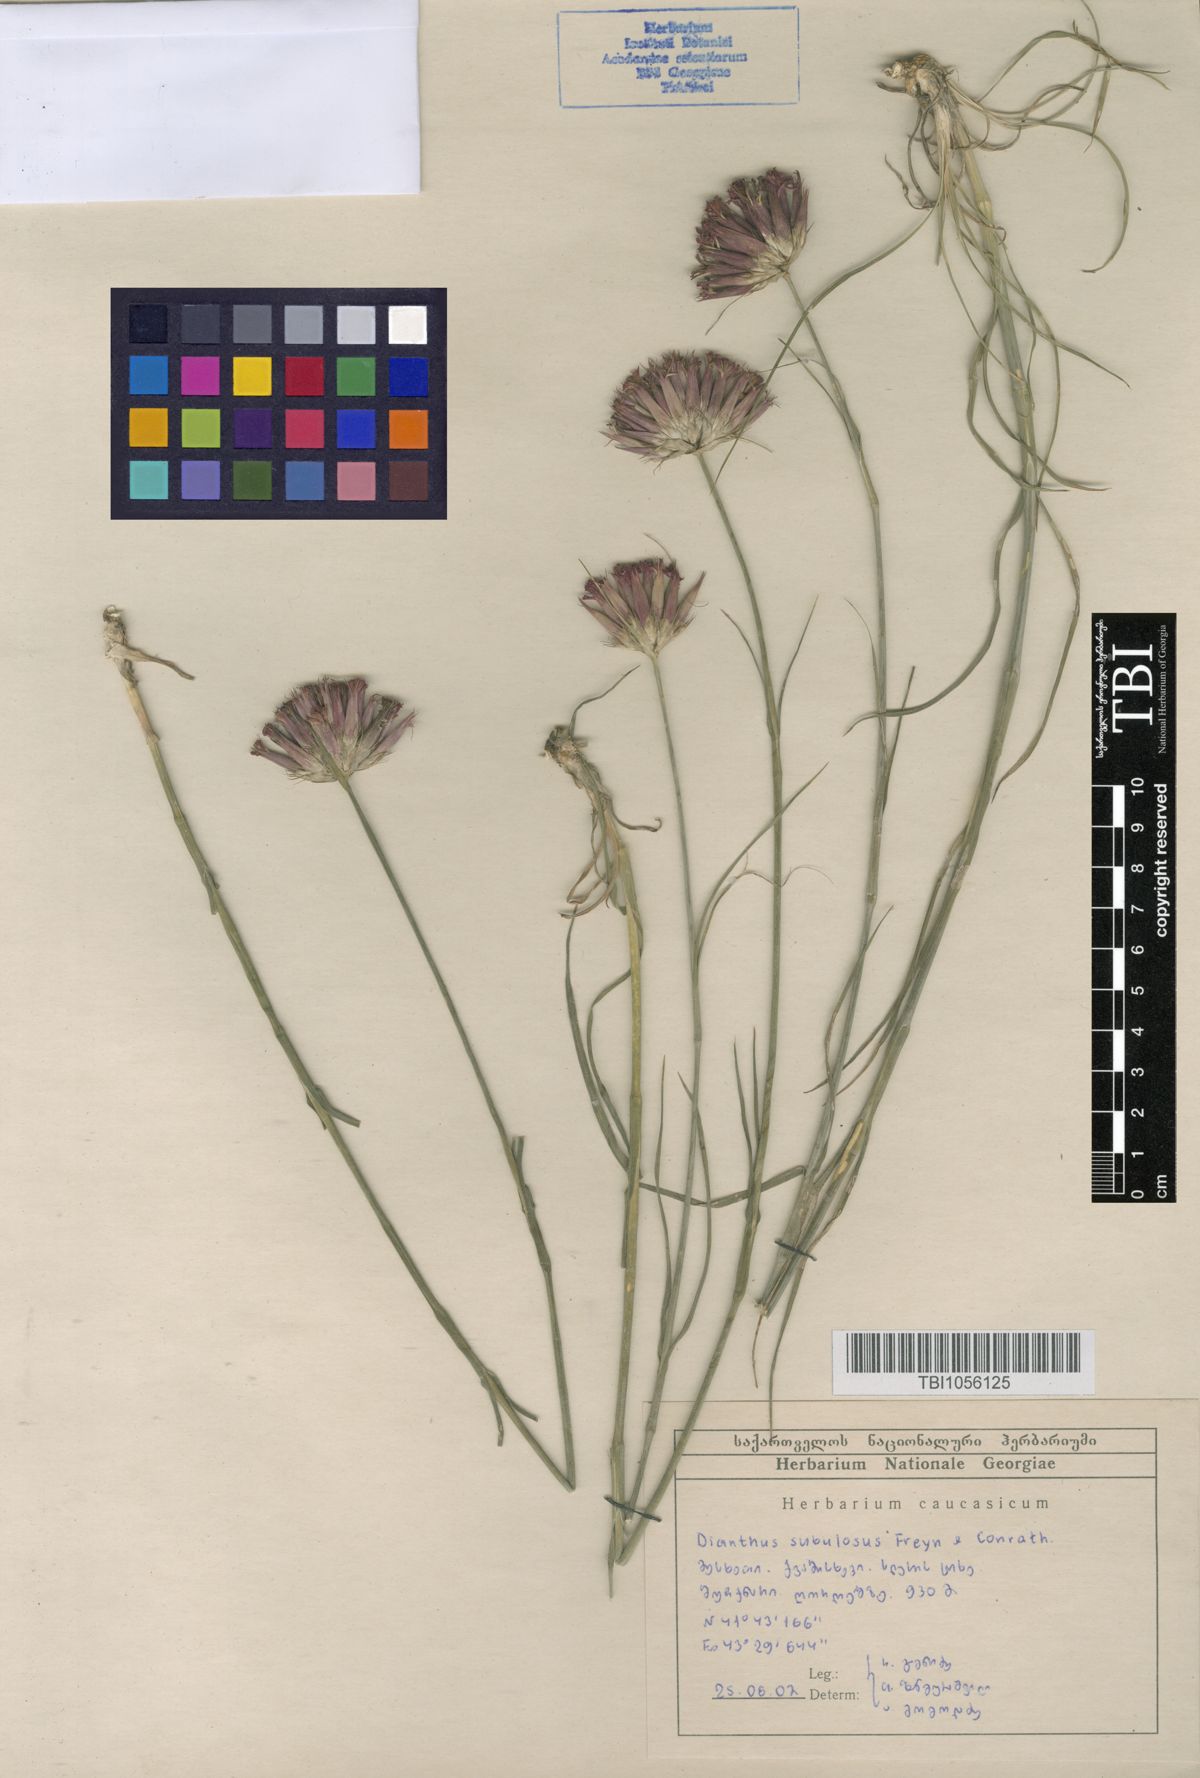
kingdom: Plantae
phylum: Tracheophyta
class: Magnoliopsida
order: Caryophyllales
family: Caryophyllaceae
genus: Dianthus
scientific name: Dianthus subulosus
